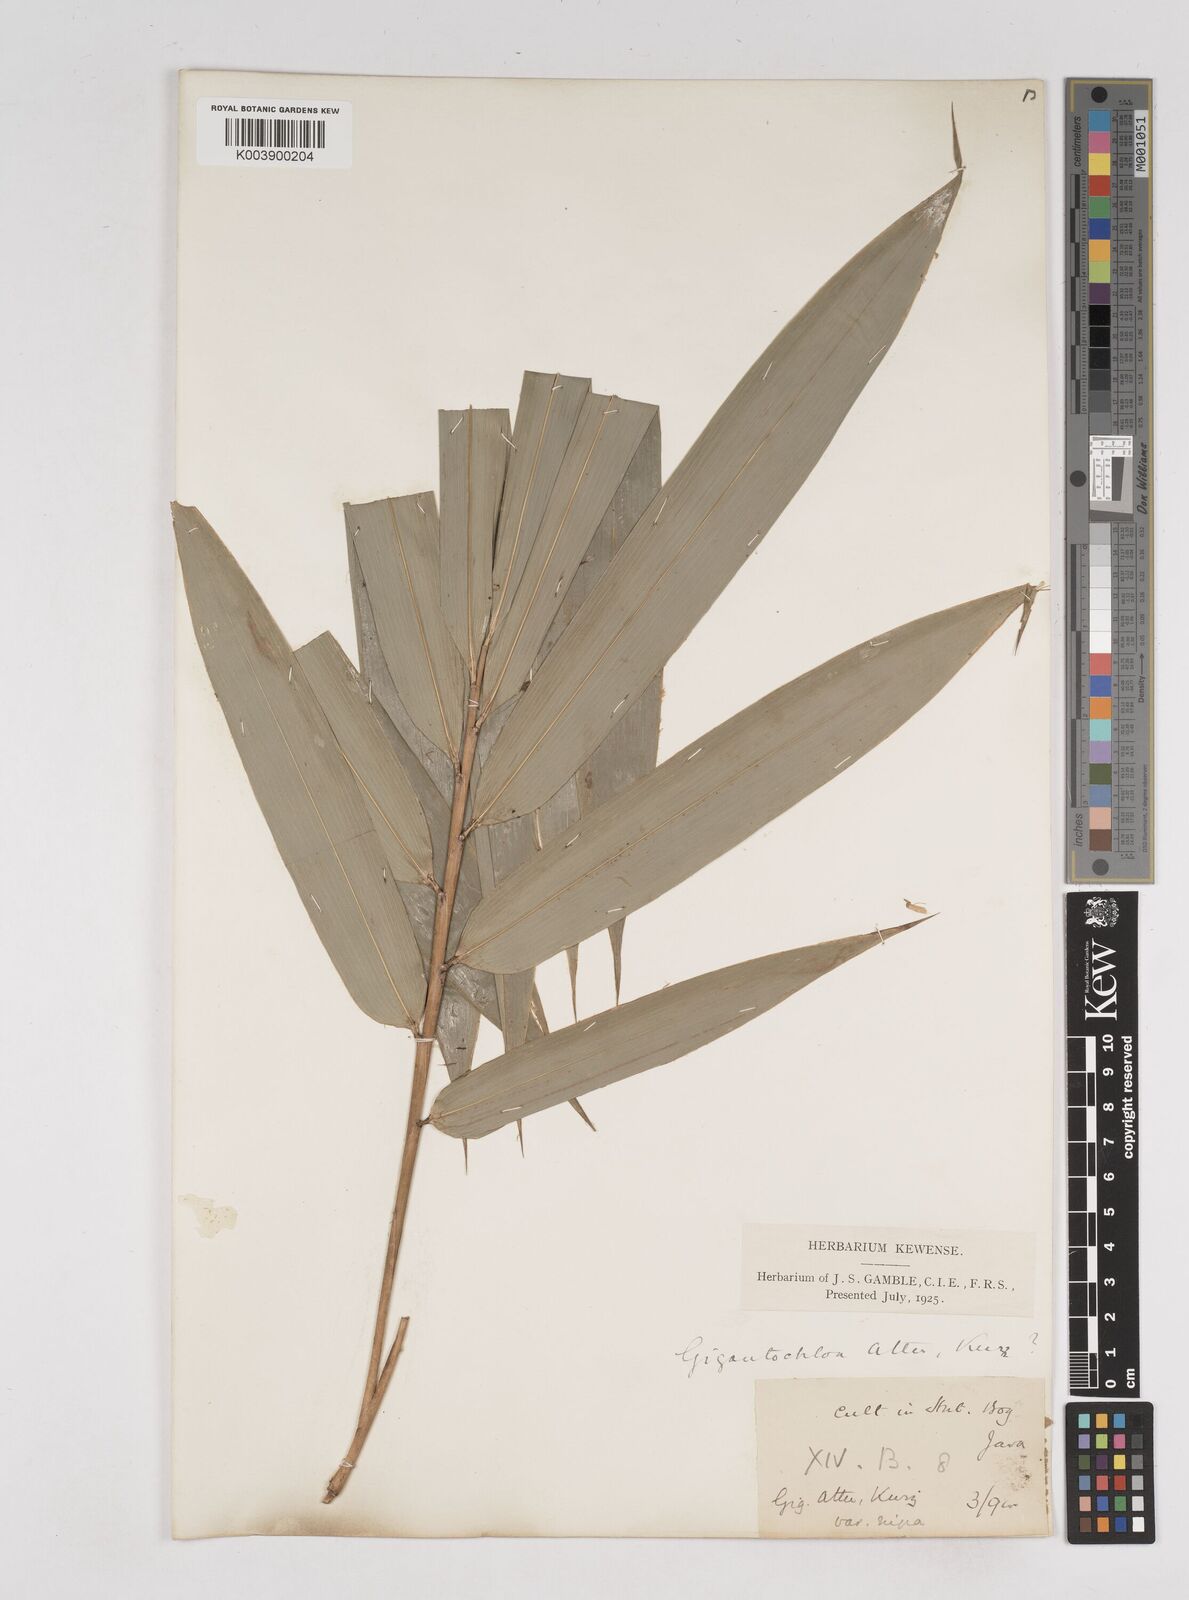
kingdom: Plantae
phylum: Tracheophyta
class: Liliopsida
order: Poales
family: Poaceae
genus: Gigantochloa
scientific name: Gigantochloa atter
